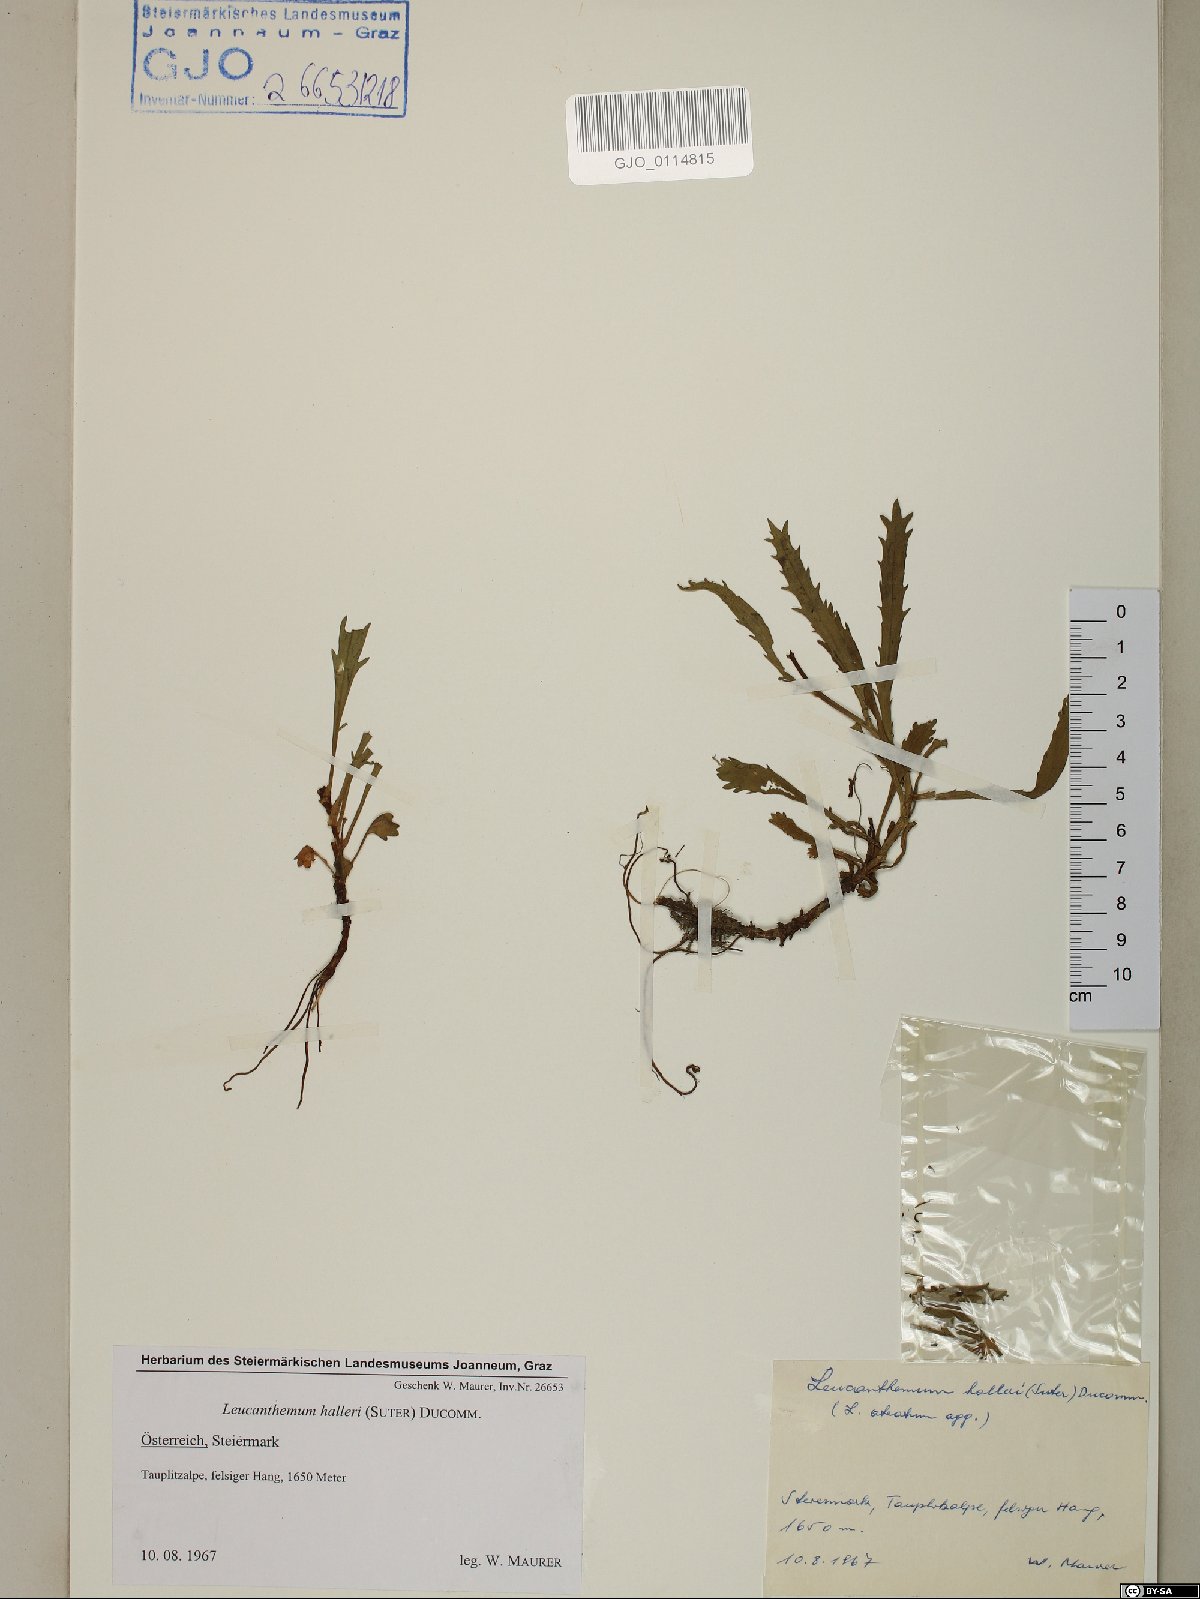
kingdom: Plantae
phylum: Tracheophyta
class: Magnoliopsida
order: Asterales
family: Asteraceae
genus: Leucanthemum
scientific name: Leucanthemum halleri
